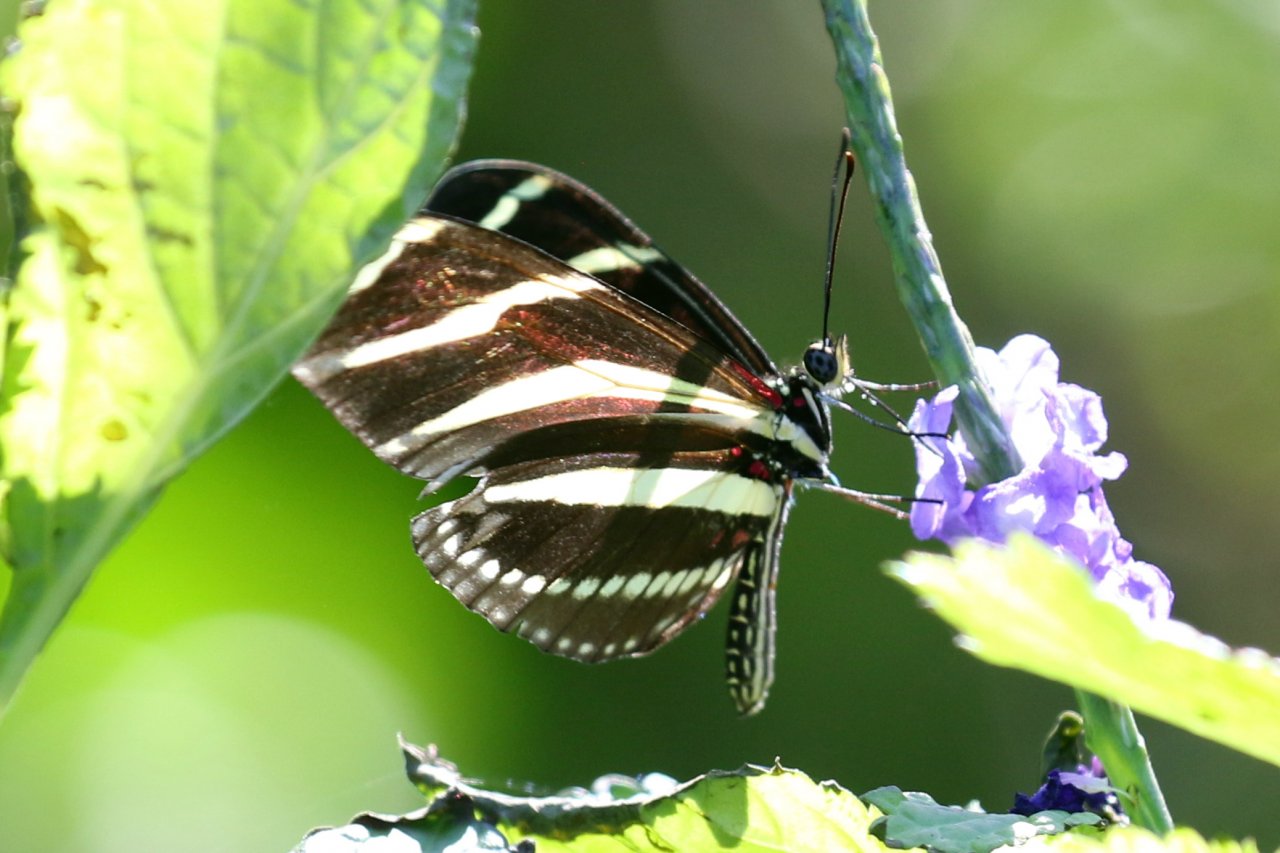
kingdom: Animalia
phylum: Arthropoda
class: Insecta
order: Lepidoptera
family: Nymphalidae
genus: Heliconius
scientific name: Heliconius charithonia
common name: Zebra Longwing
